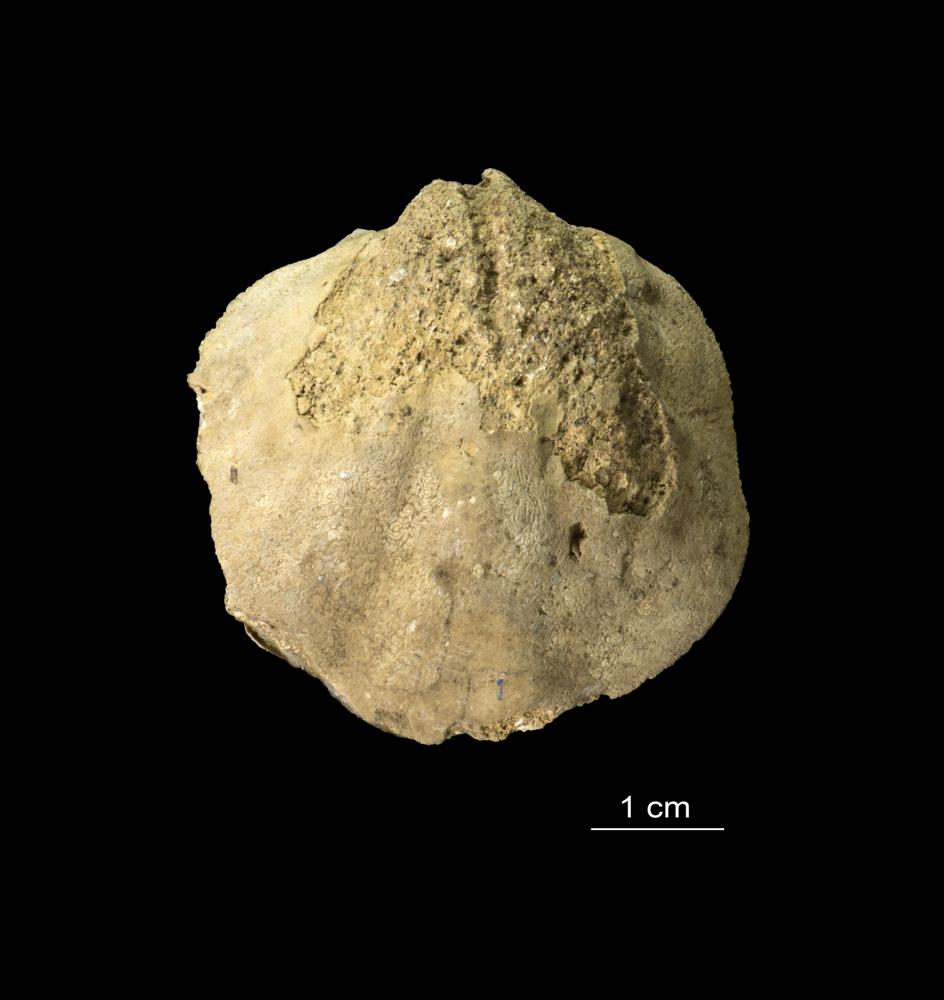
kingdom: Animalia
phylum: Brachiopoda
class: Rhynchonellata
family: Stricklandiidae
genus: Stricklandia
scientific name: Stricklandia Atrypa lens
